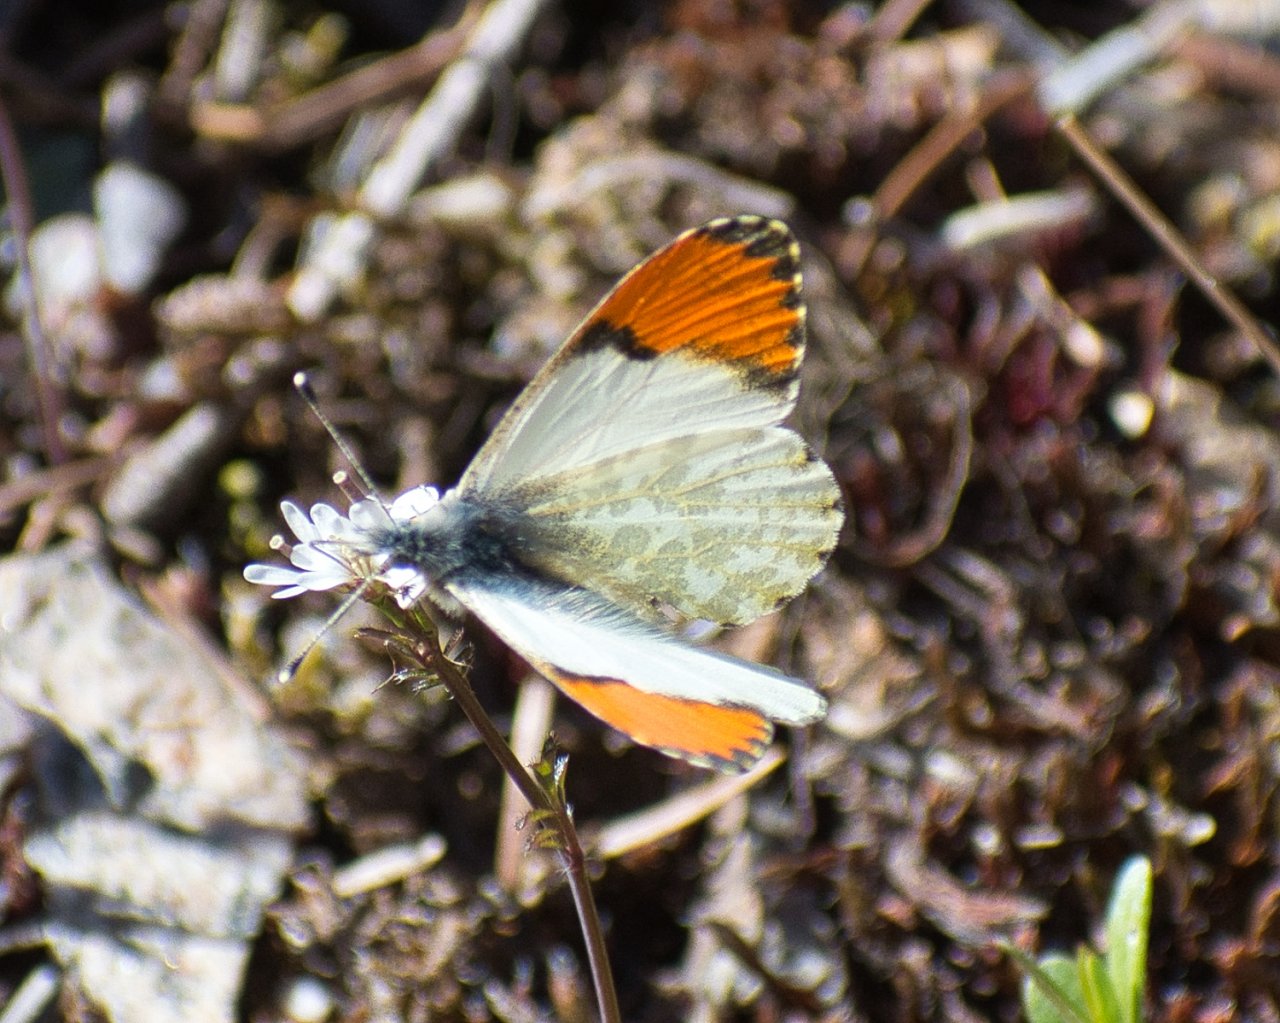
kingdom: Animalia
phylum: Arthropoda
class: Insecta
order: Lepidoptera
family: Pieridae
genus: Anthocharis
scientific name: Anthocharis sara
